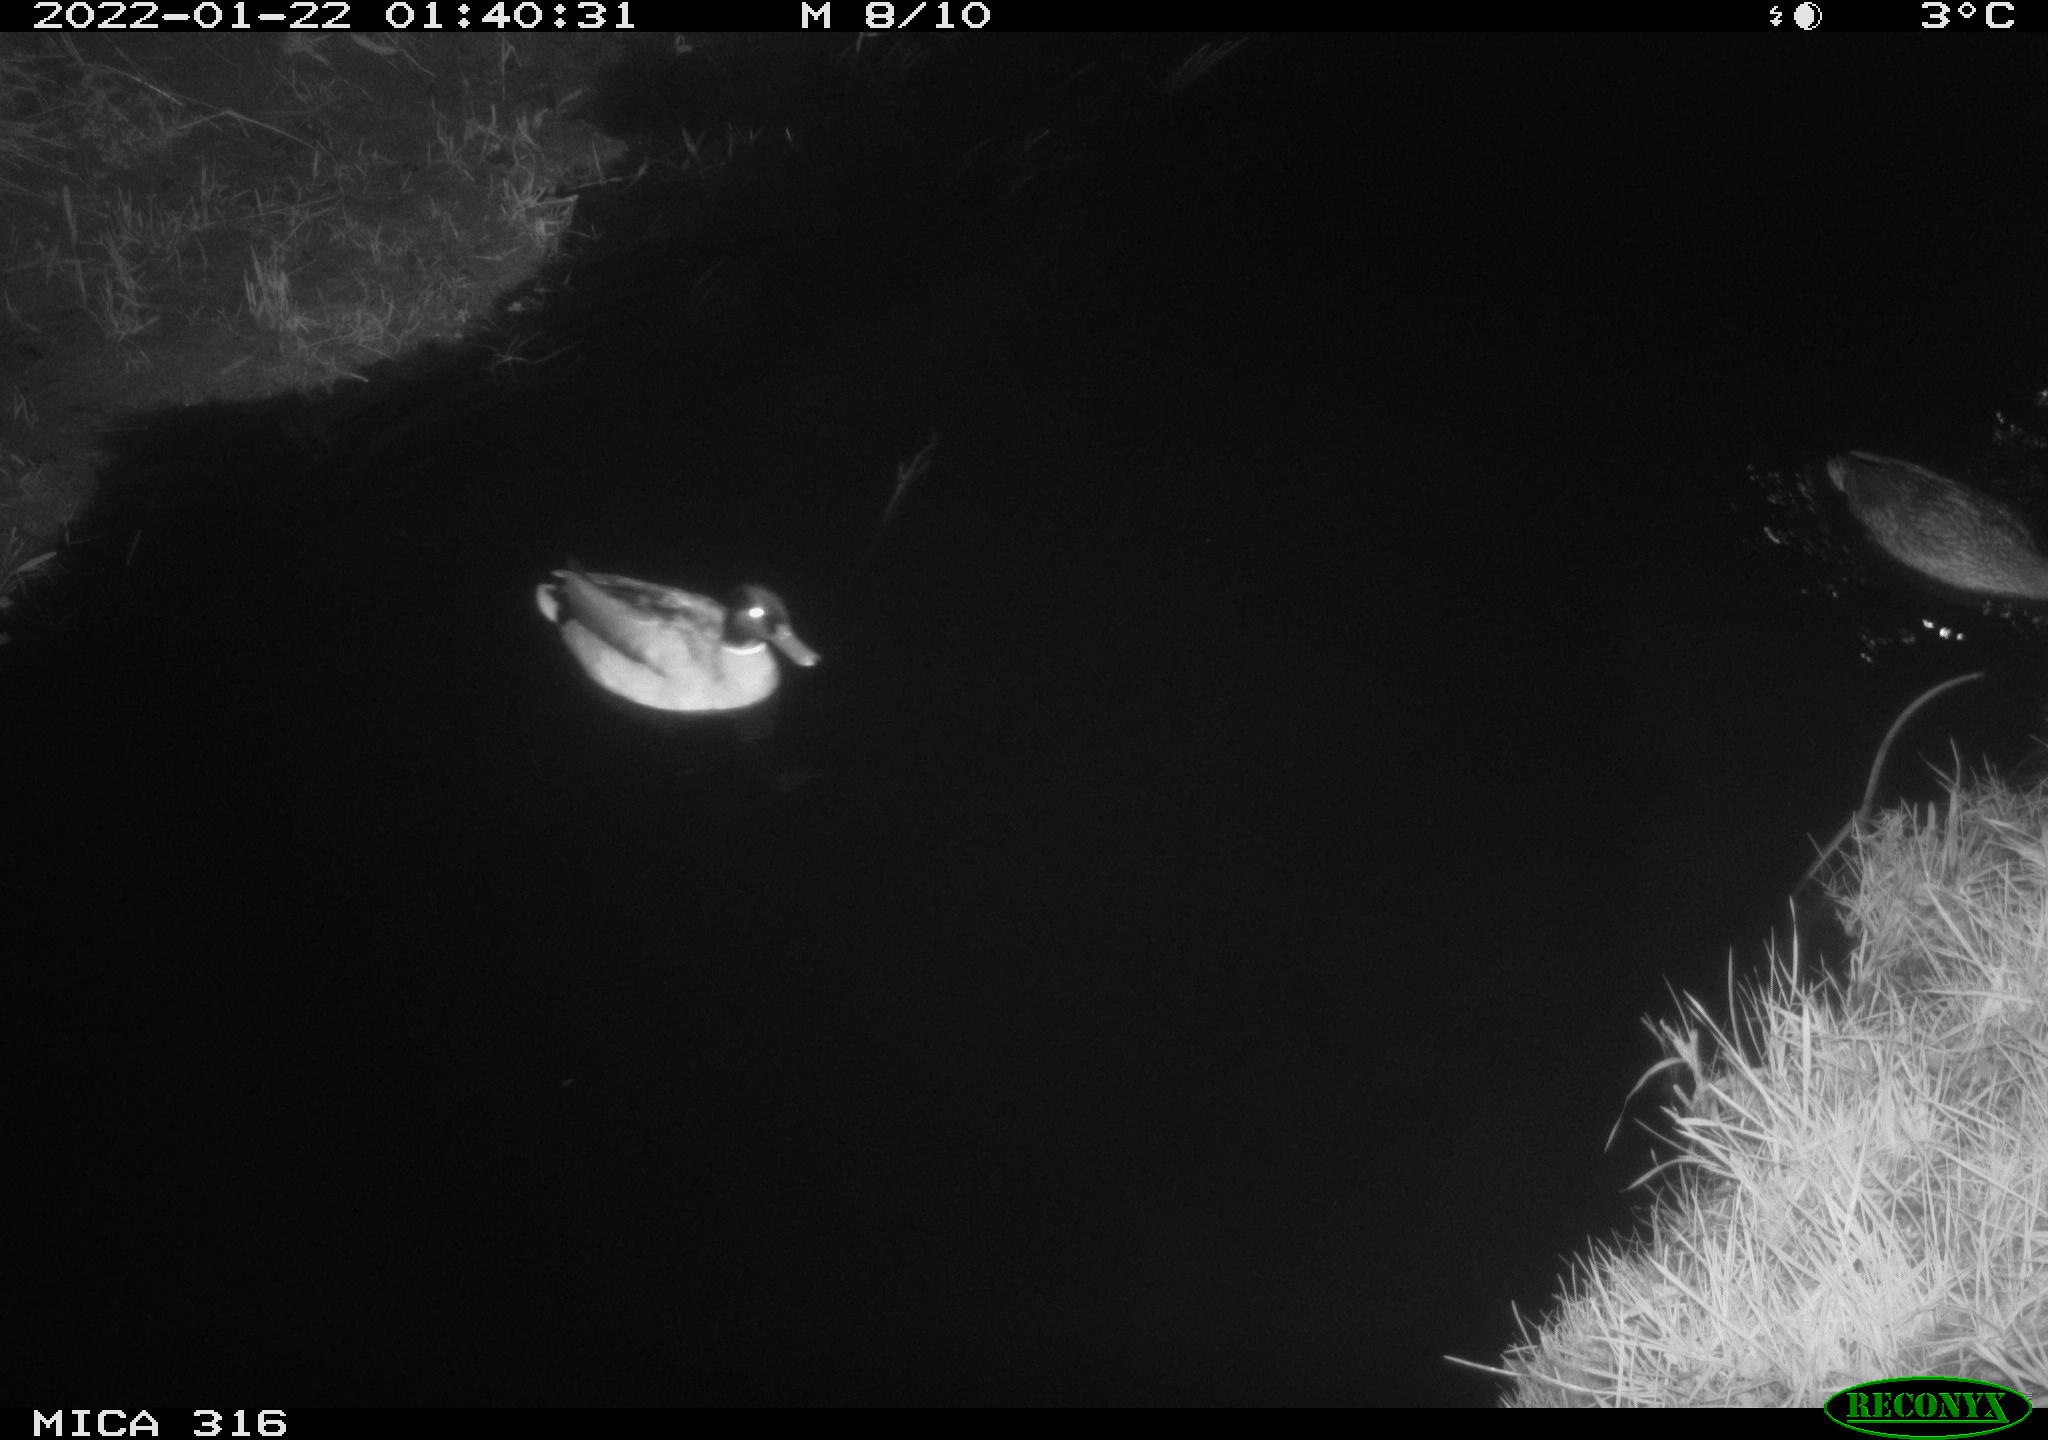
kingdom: Animalia
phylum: Chordata
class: Aves
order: Anseriformes
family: Anatidae
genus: Anas
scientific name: Anas platyrhynchos
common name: Mallard
